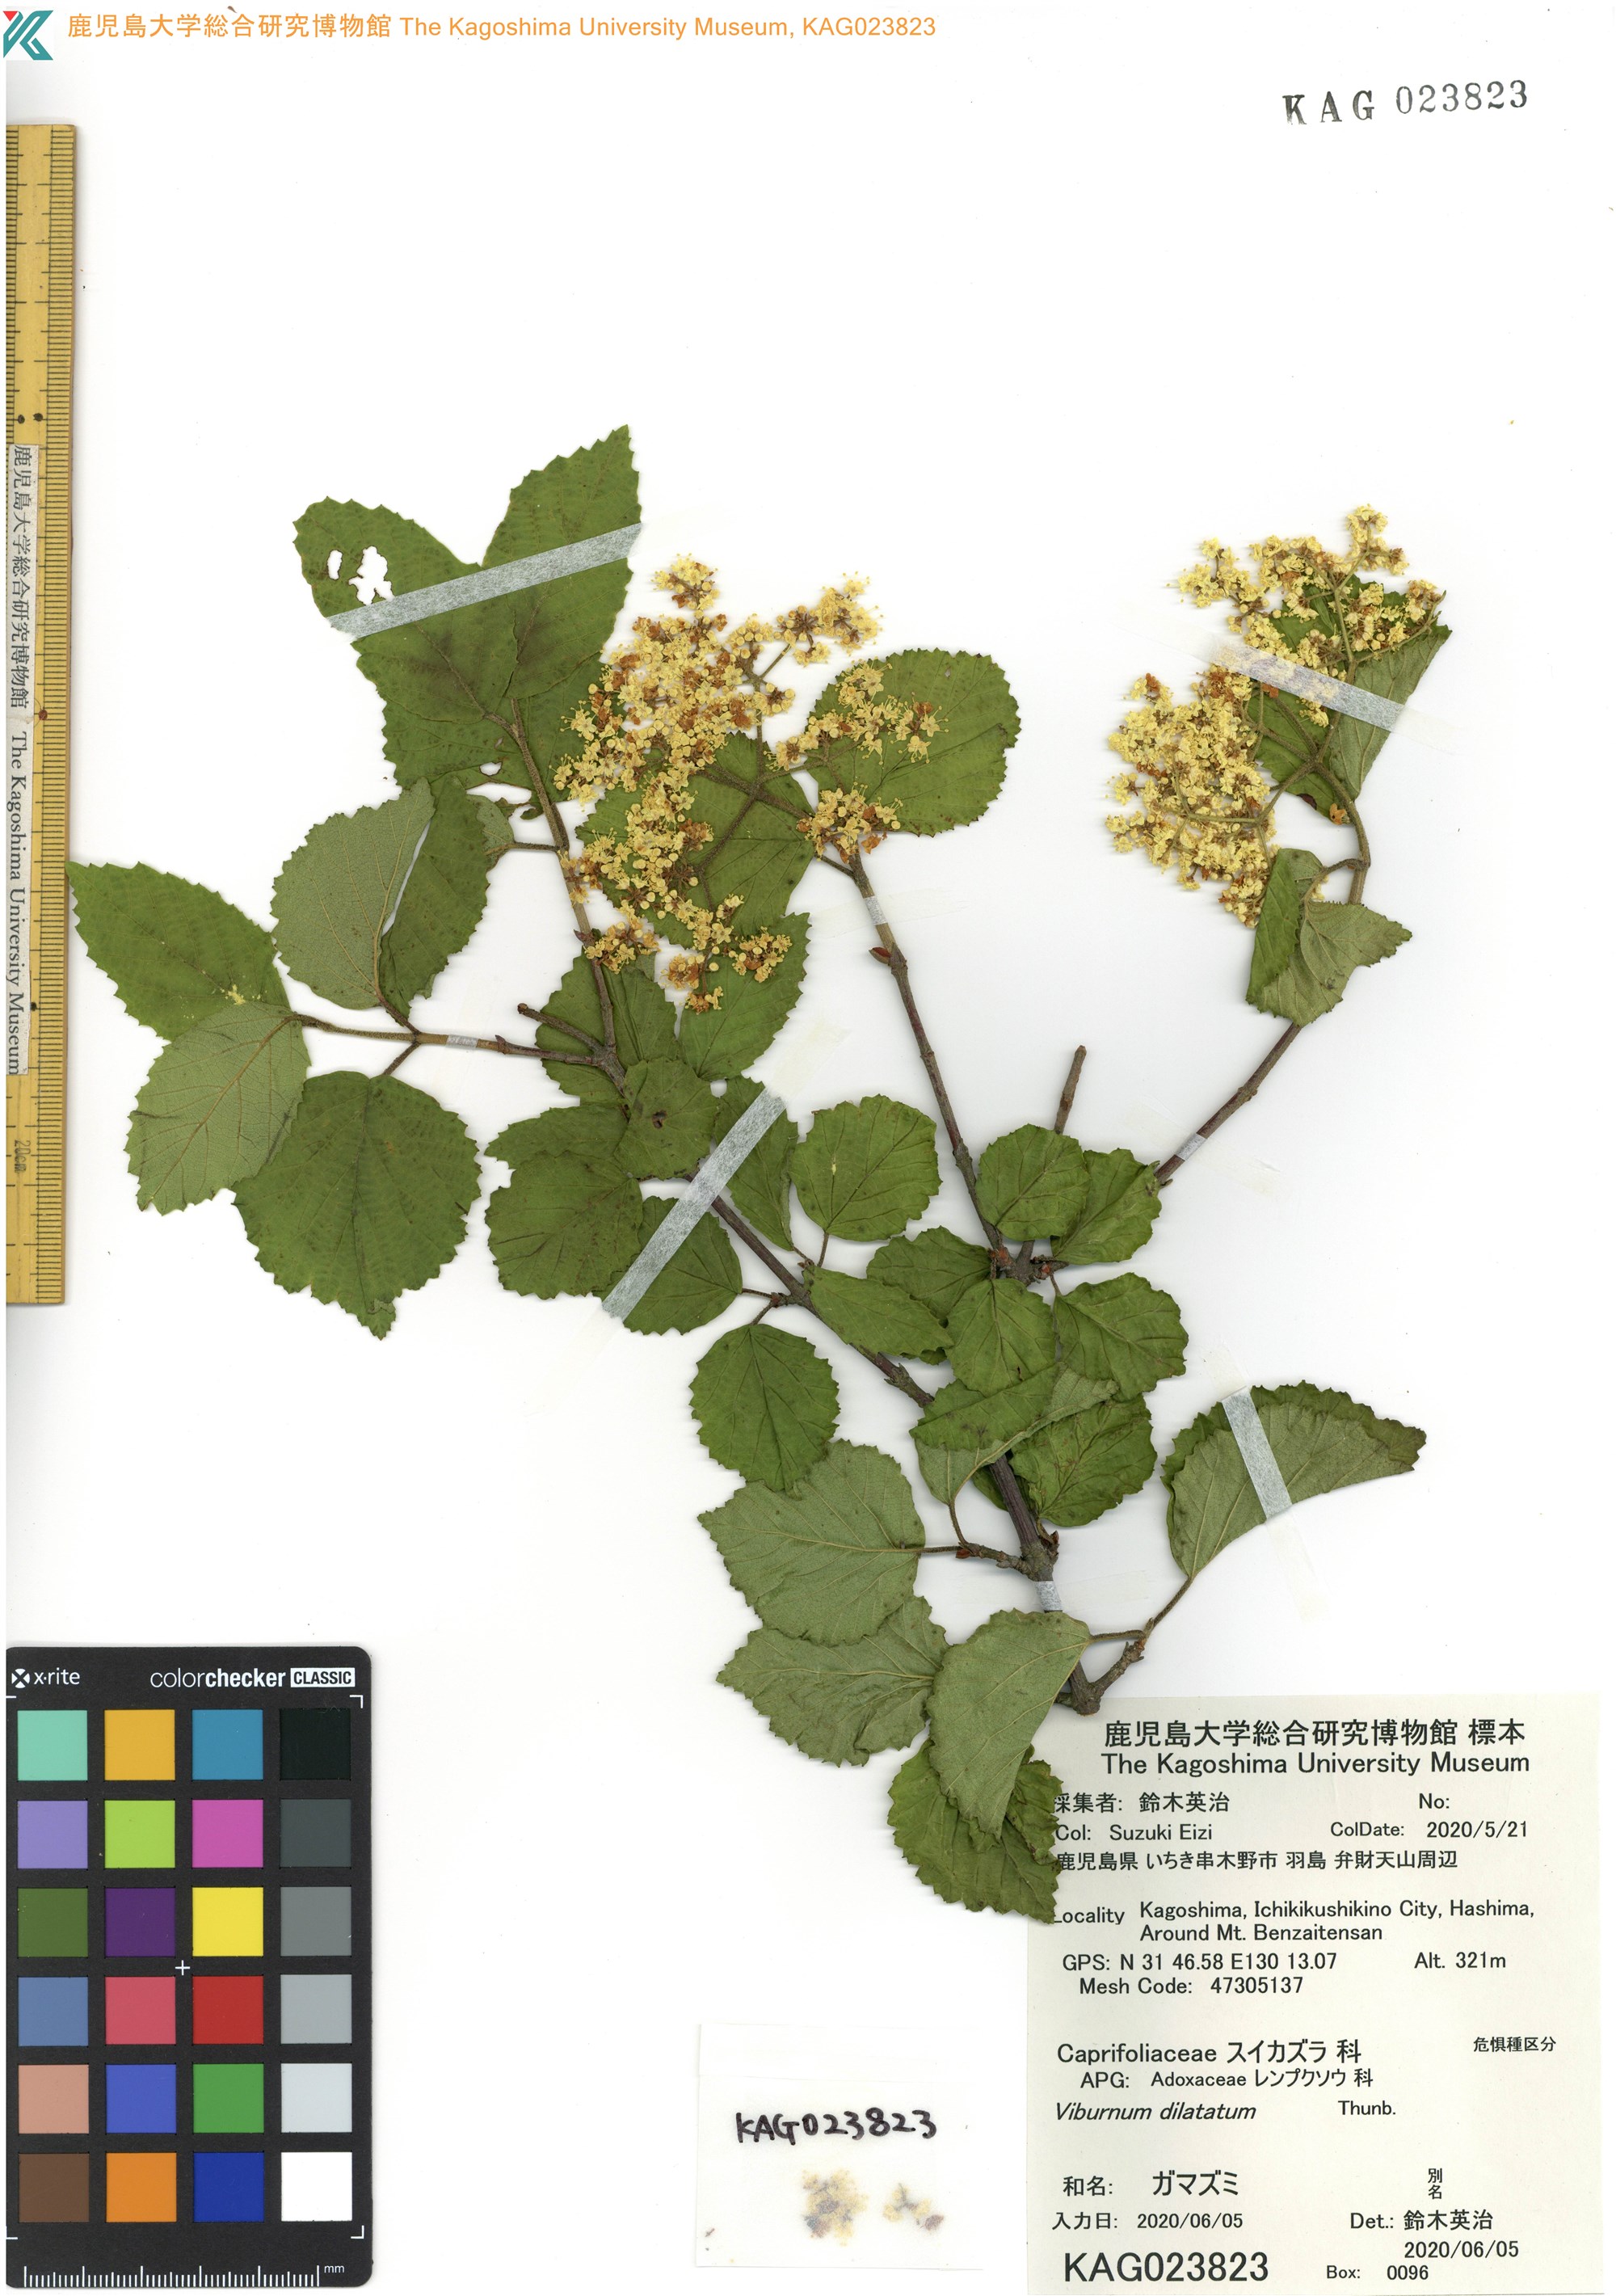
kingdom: Plantae
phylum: Tracheophyta
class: Magnoliopsida
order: Dipsacales
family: Viburnaceae
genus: Viburnum
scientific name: Viburnum dilatatum
